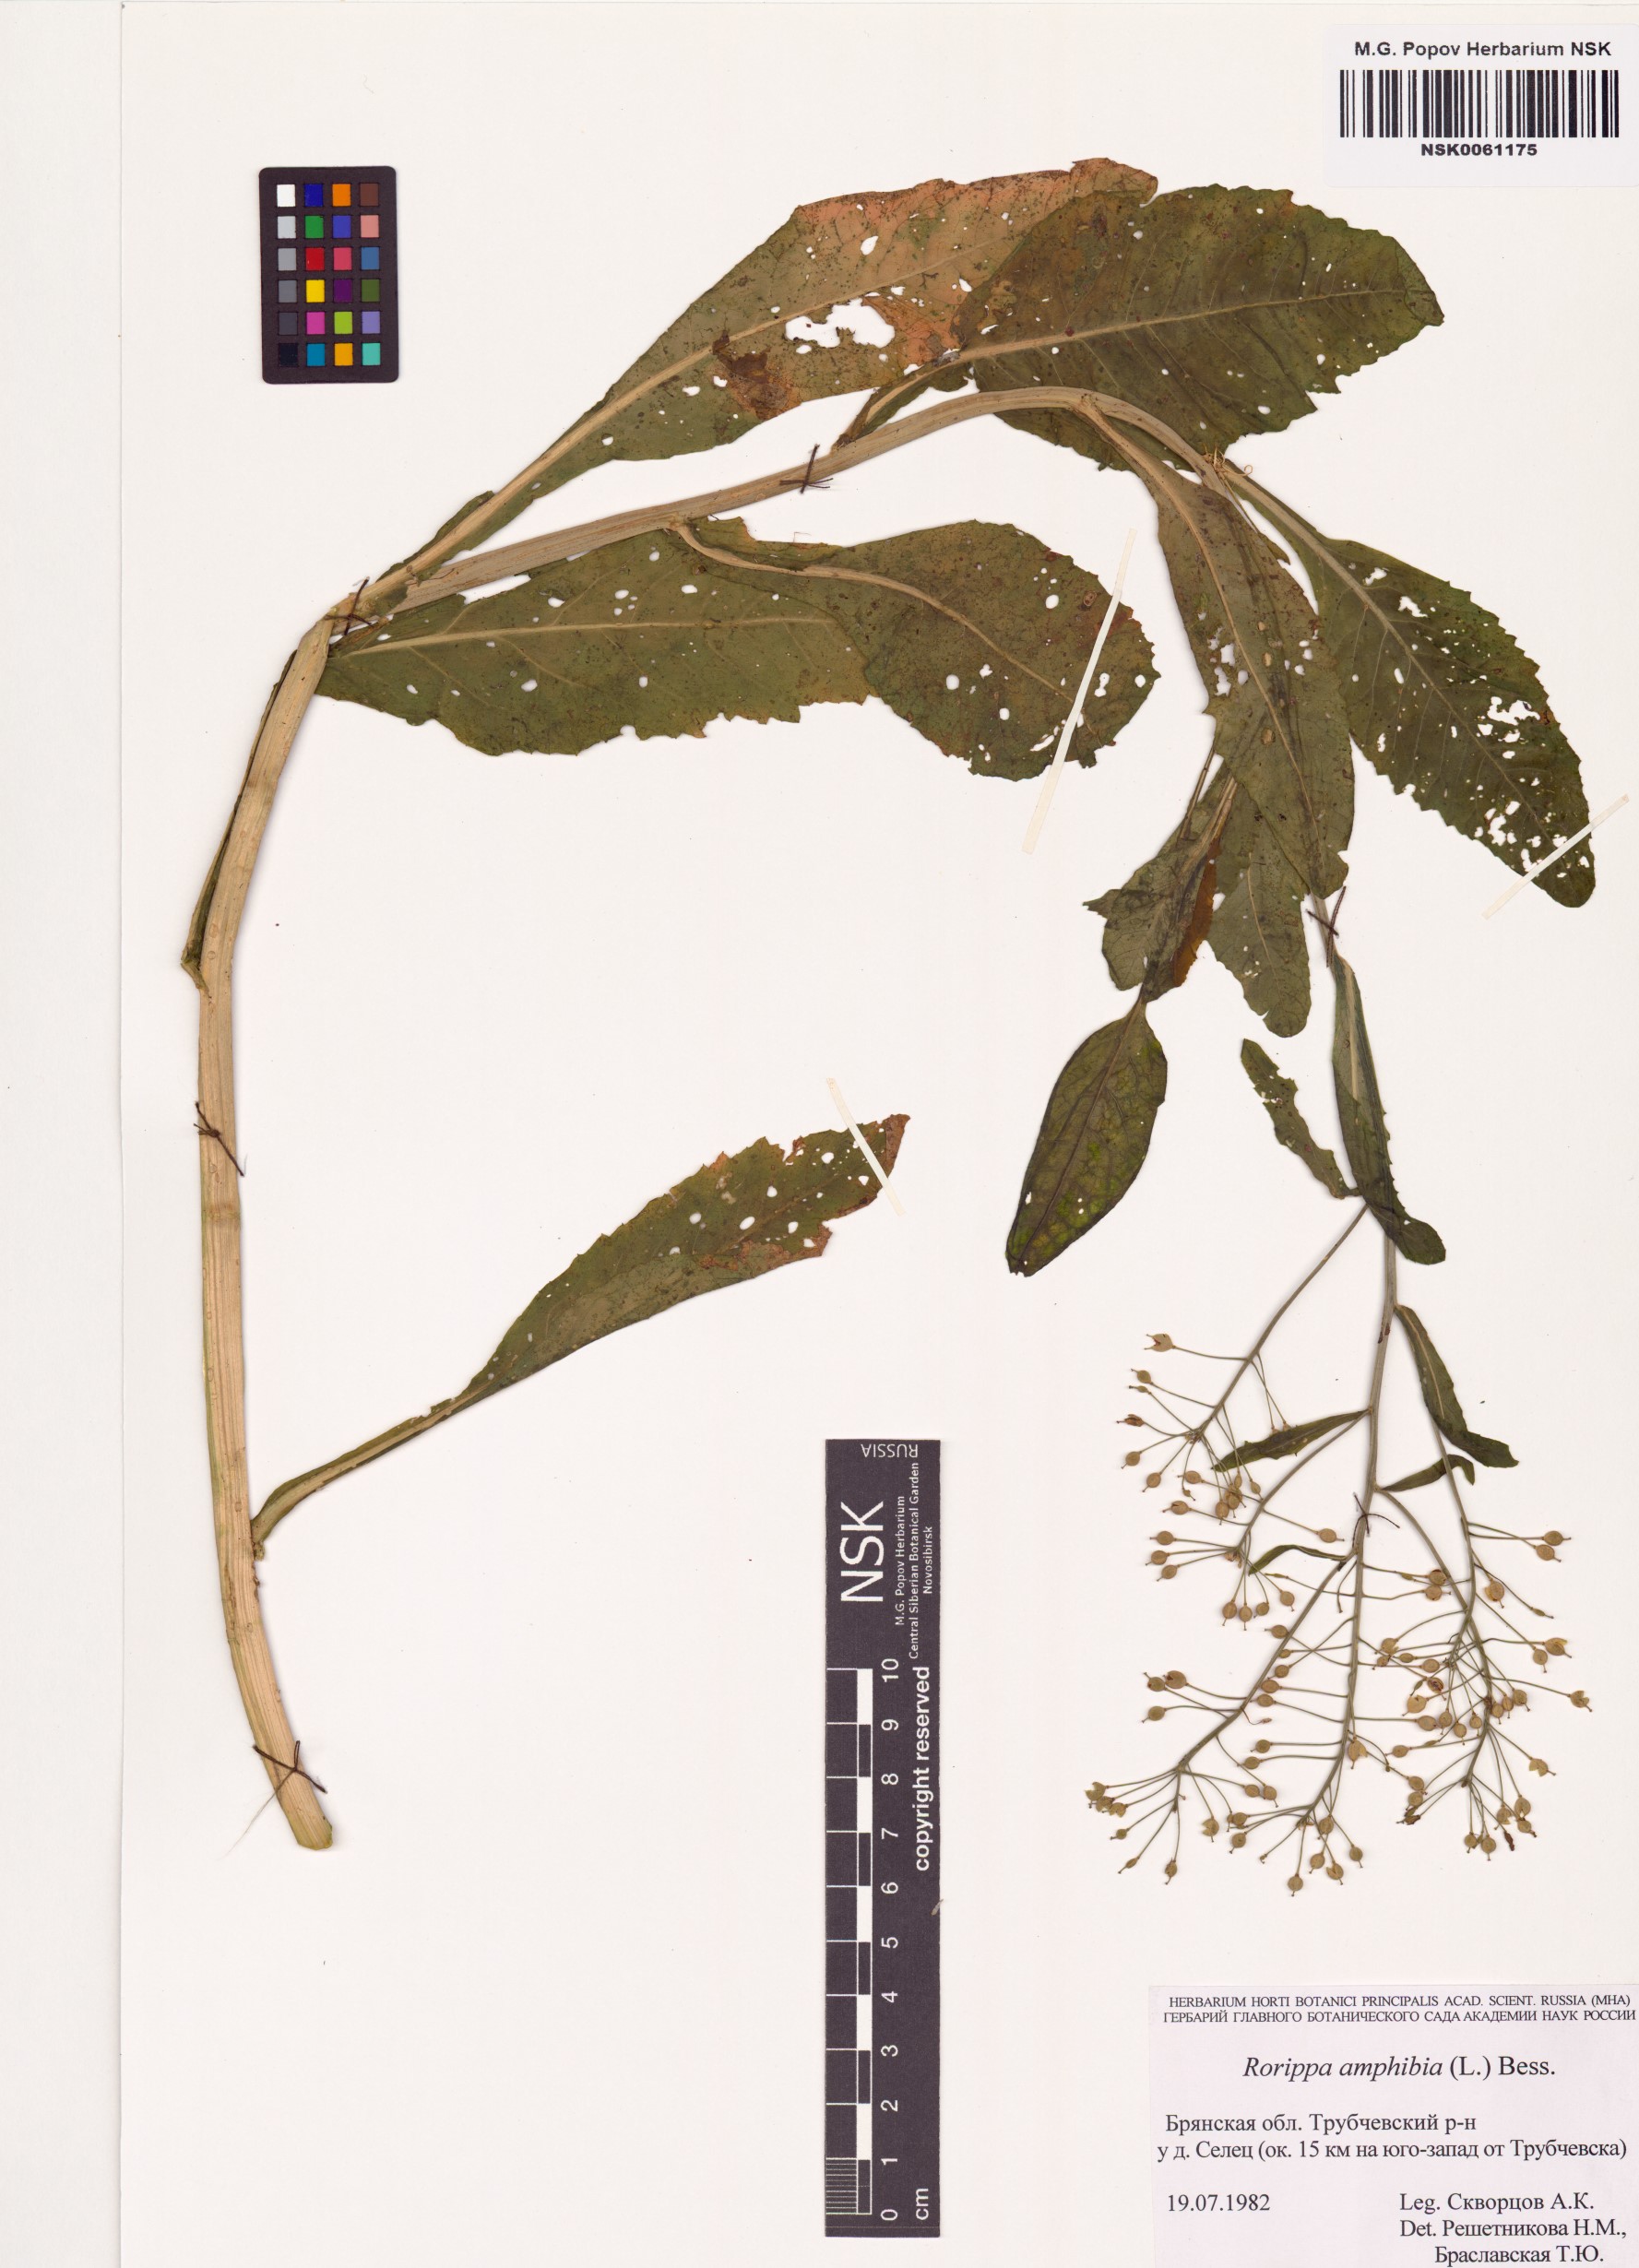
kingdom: Plantae
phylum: Tracheophyta
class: Magnoliopsida
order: Brassicales
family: Brassicaceae
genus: Rorippa
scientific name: Rorippa amphibia
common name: Great yellow-cress
